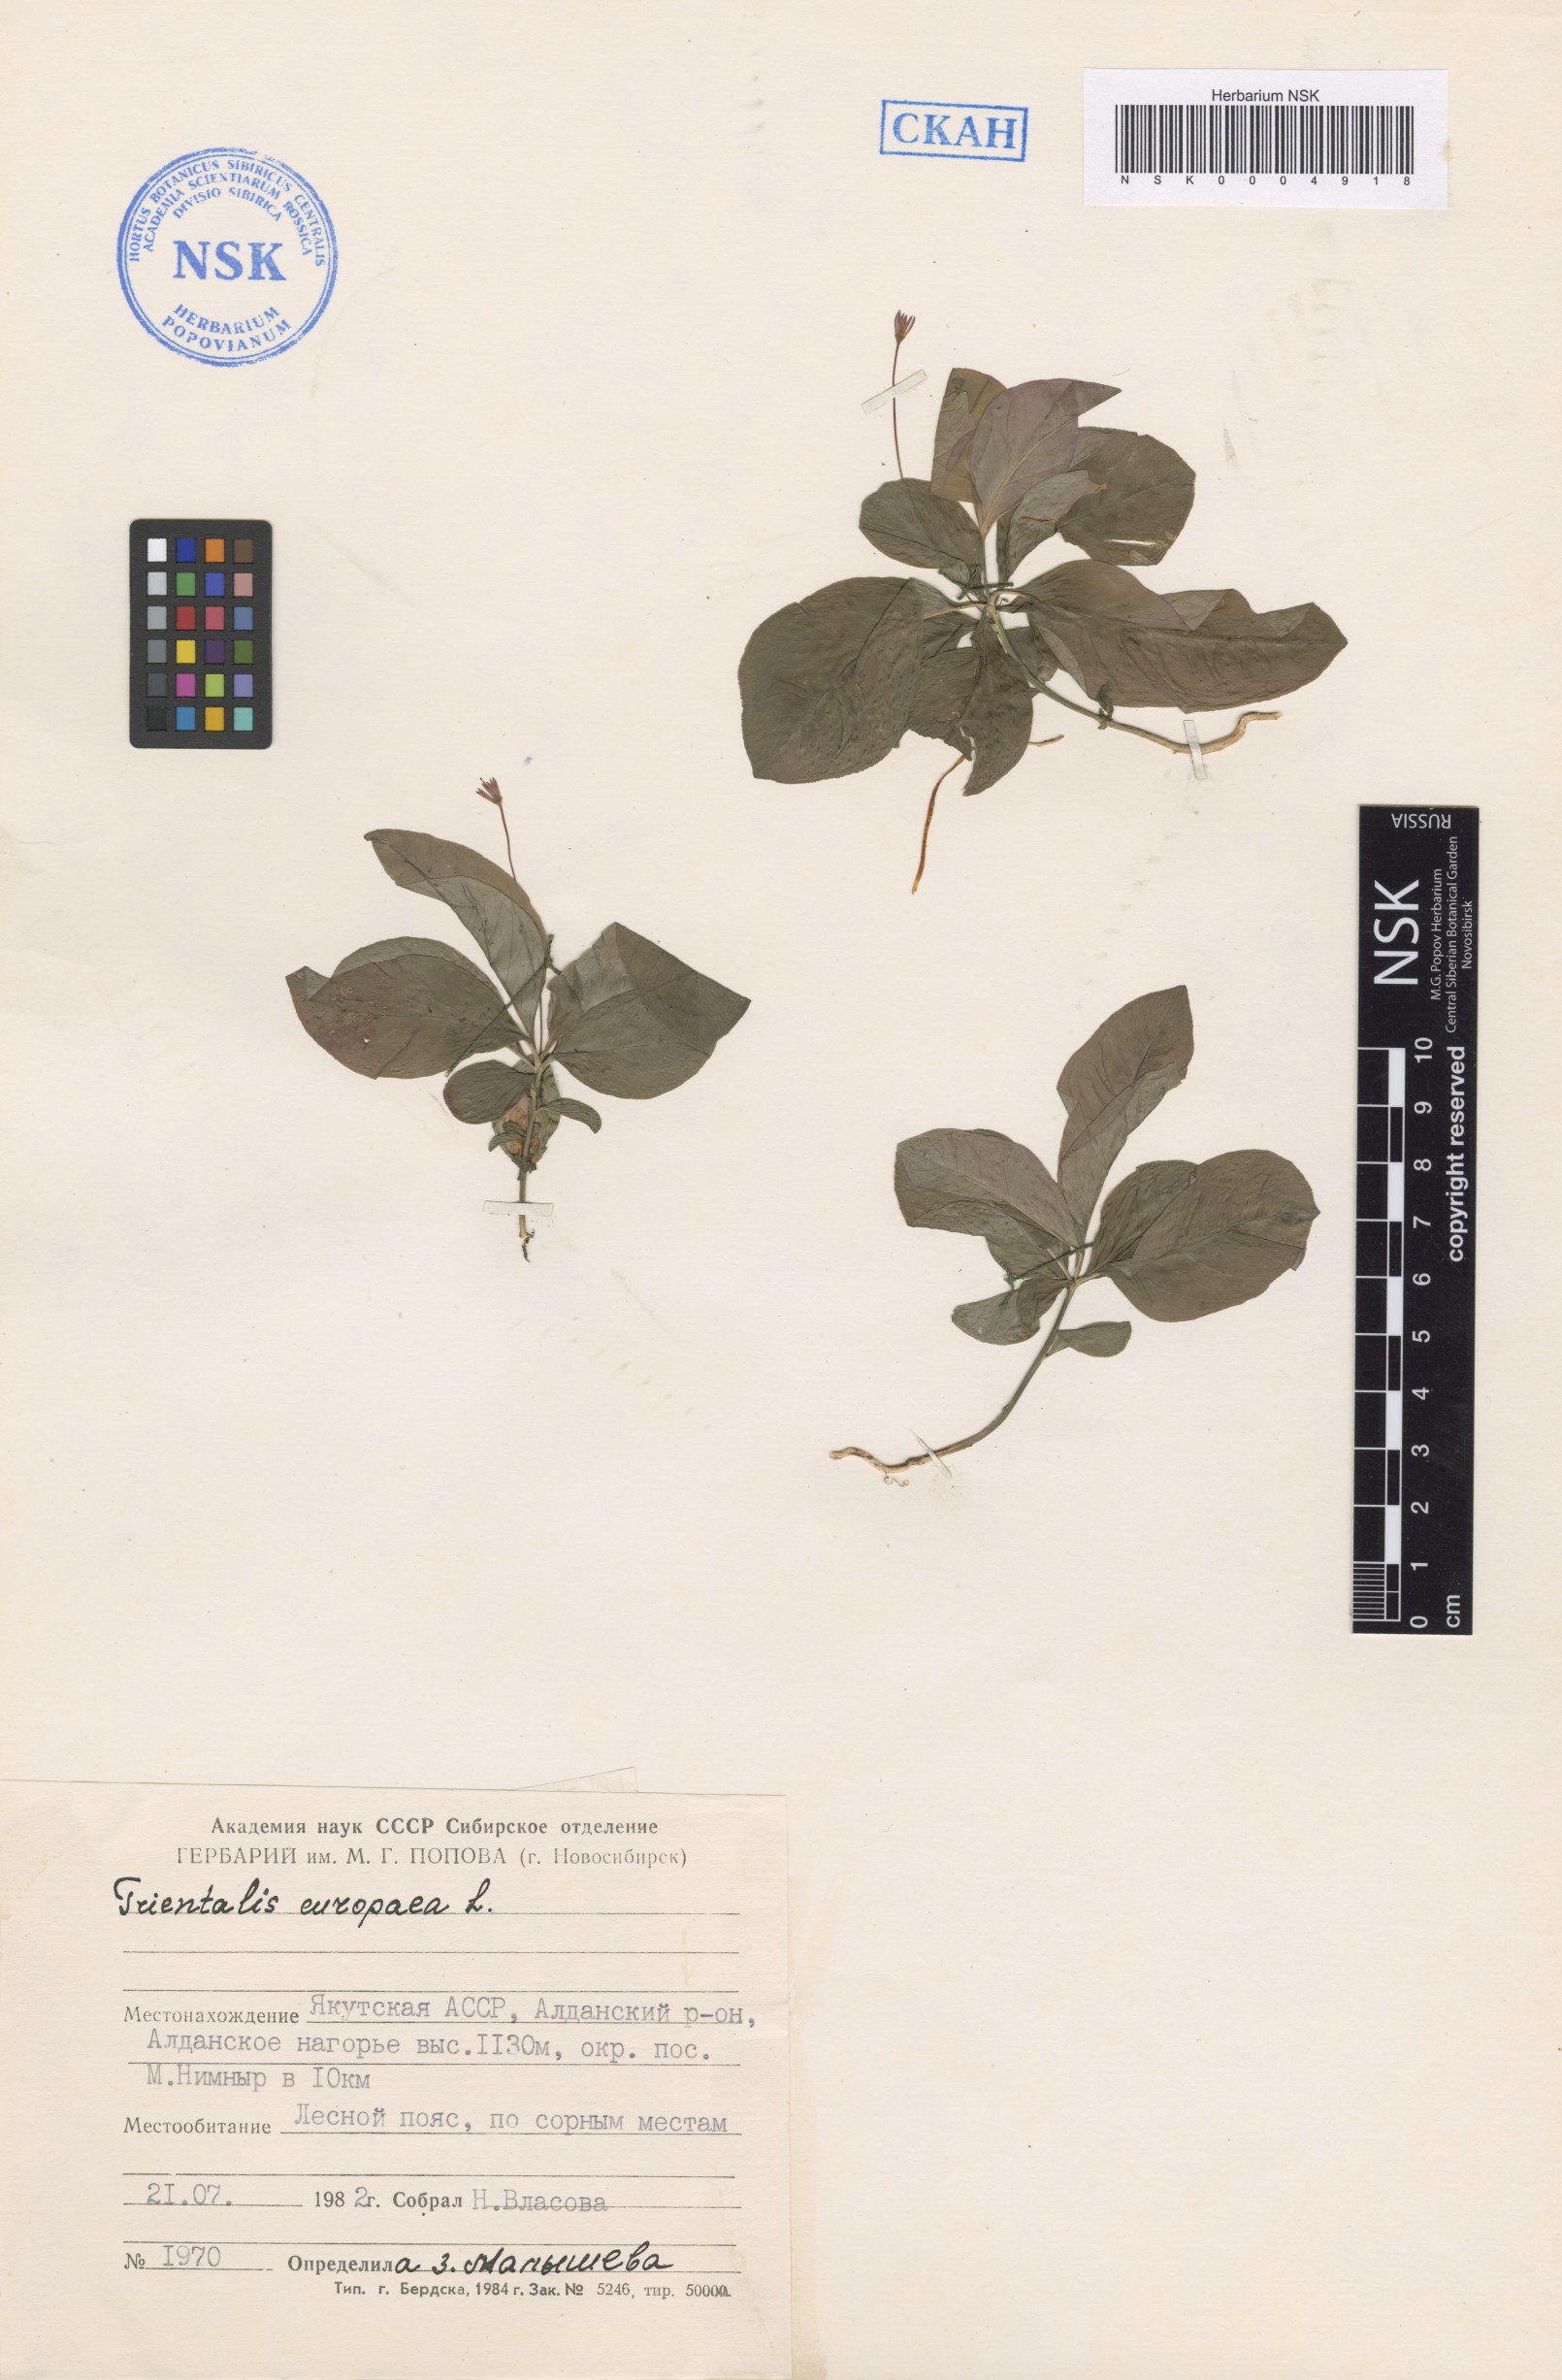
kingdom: Plantae
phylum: Tracheophyta
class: Magnoliopsida
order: Ericales
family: Primulaceae
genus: Lysimachia
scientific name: Lysimachia europaea
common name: Arctic starflower
